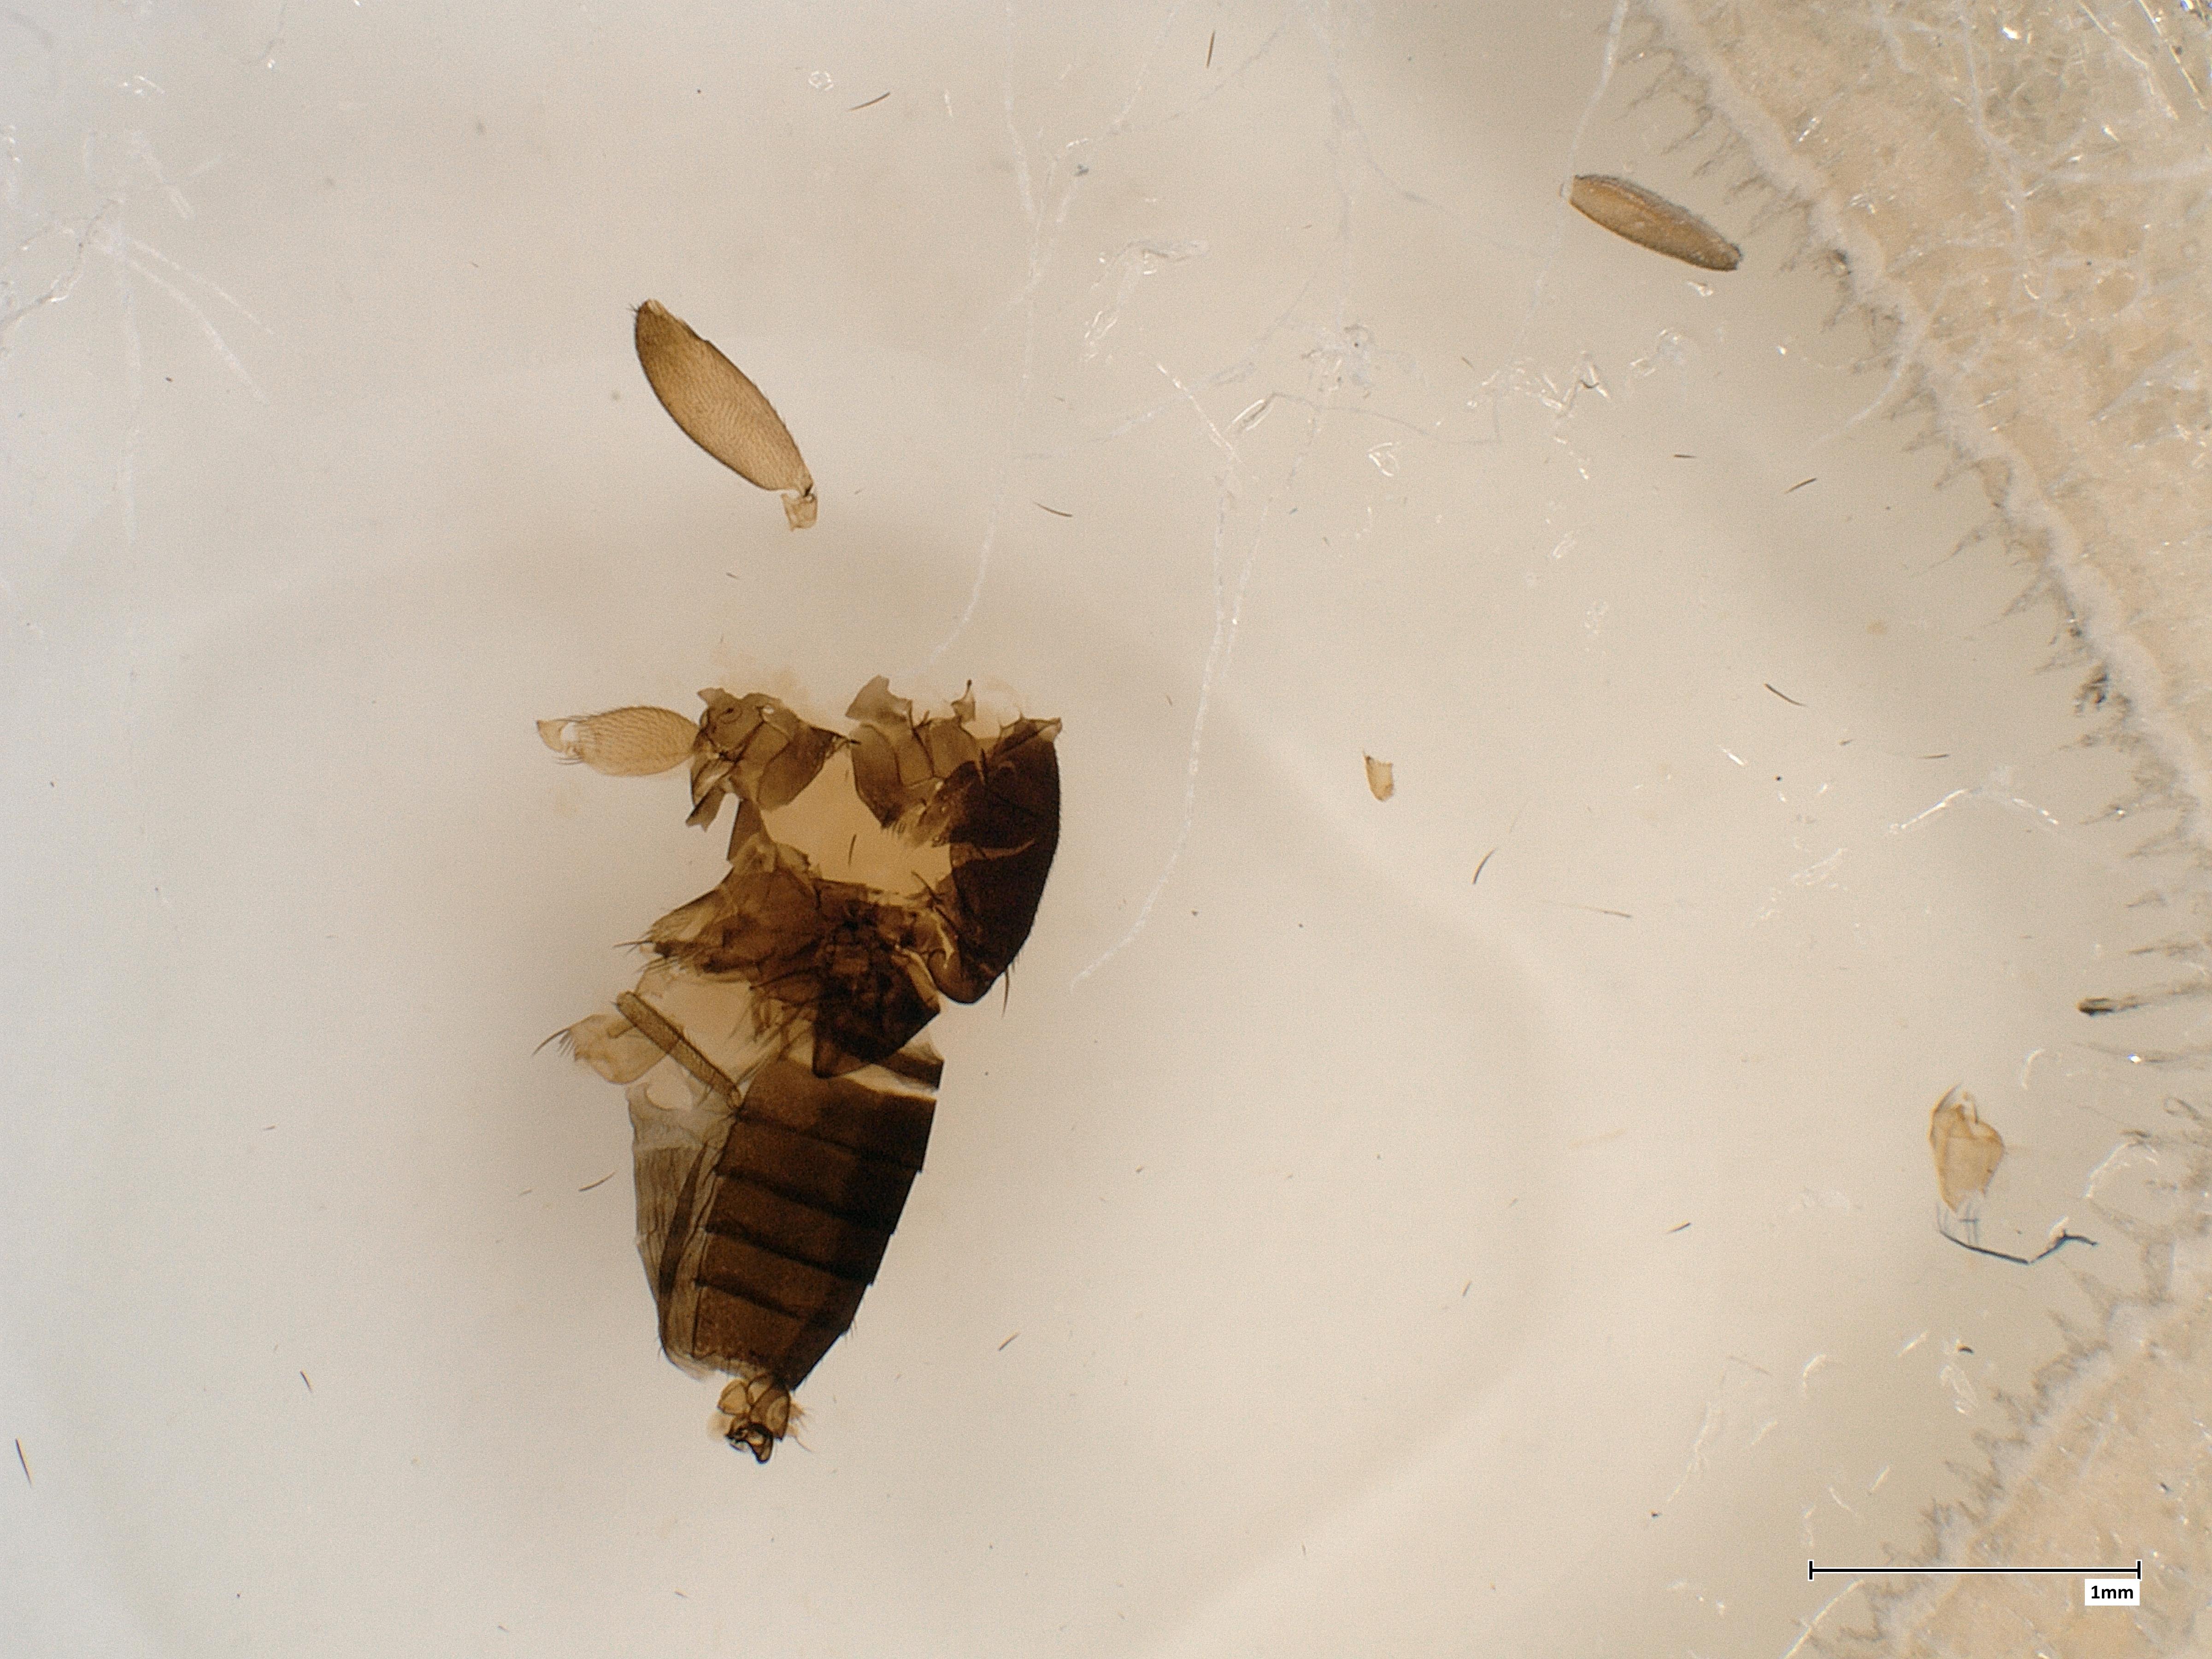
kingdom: Animalia
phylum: Arthropoda
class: Insecta
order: Diptera
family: Phoridae
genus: Megaselia
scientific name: Megaselia lucifrons
